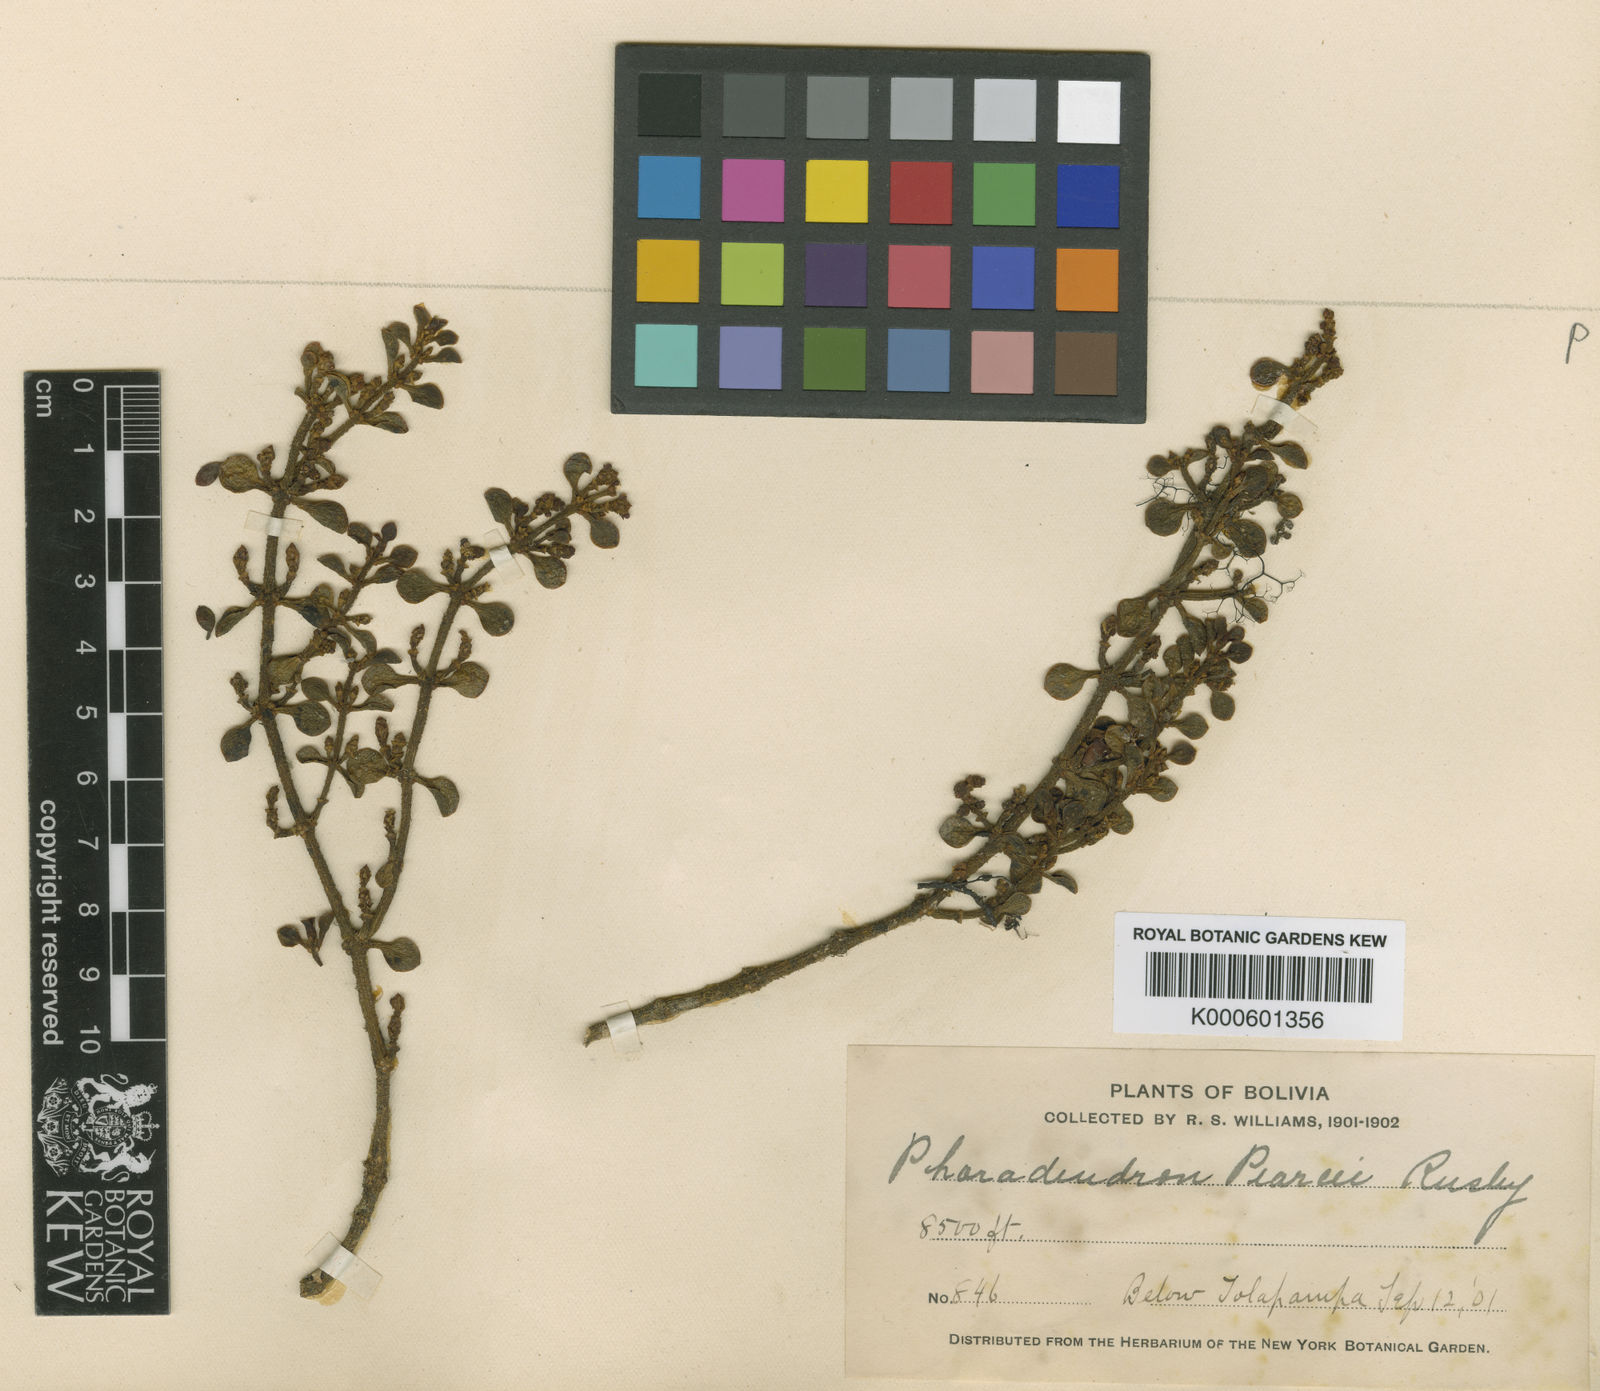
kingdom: Plantae
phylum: Tracheophyta
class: Magnoliopsida
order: Santalales
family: Viscaceae
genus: Dendrophthora
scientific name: Dendrophthora pearcei
